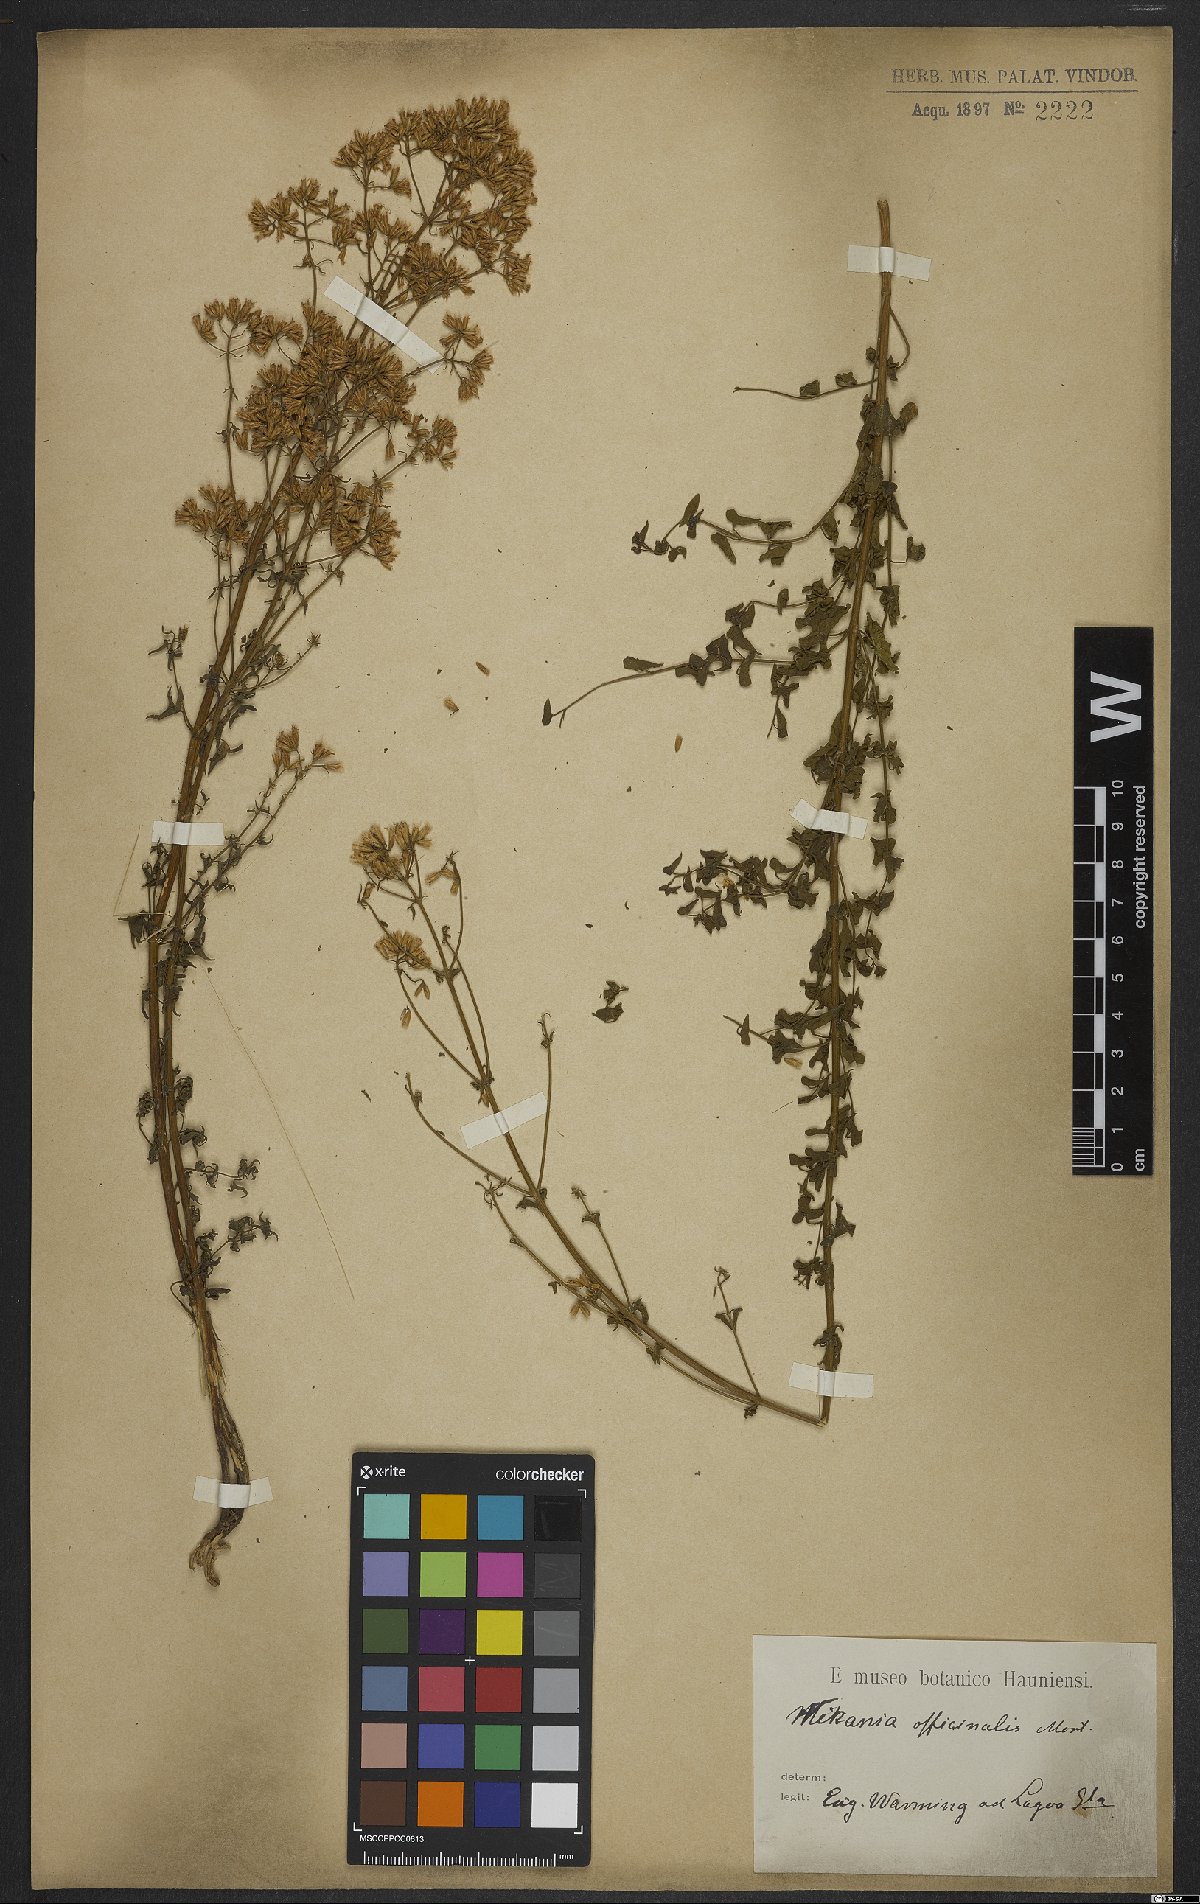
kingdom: Plantae
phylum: Tracheophyta
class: Magnoliopsida
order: Asterales
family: Asteraceae
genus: Mikania
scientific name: Mikania officinalis
